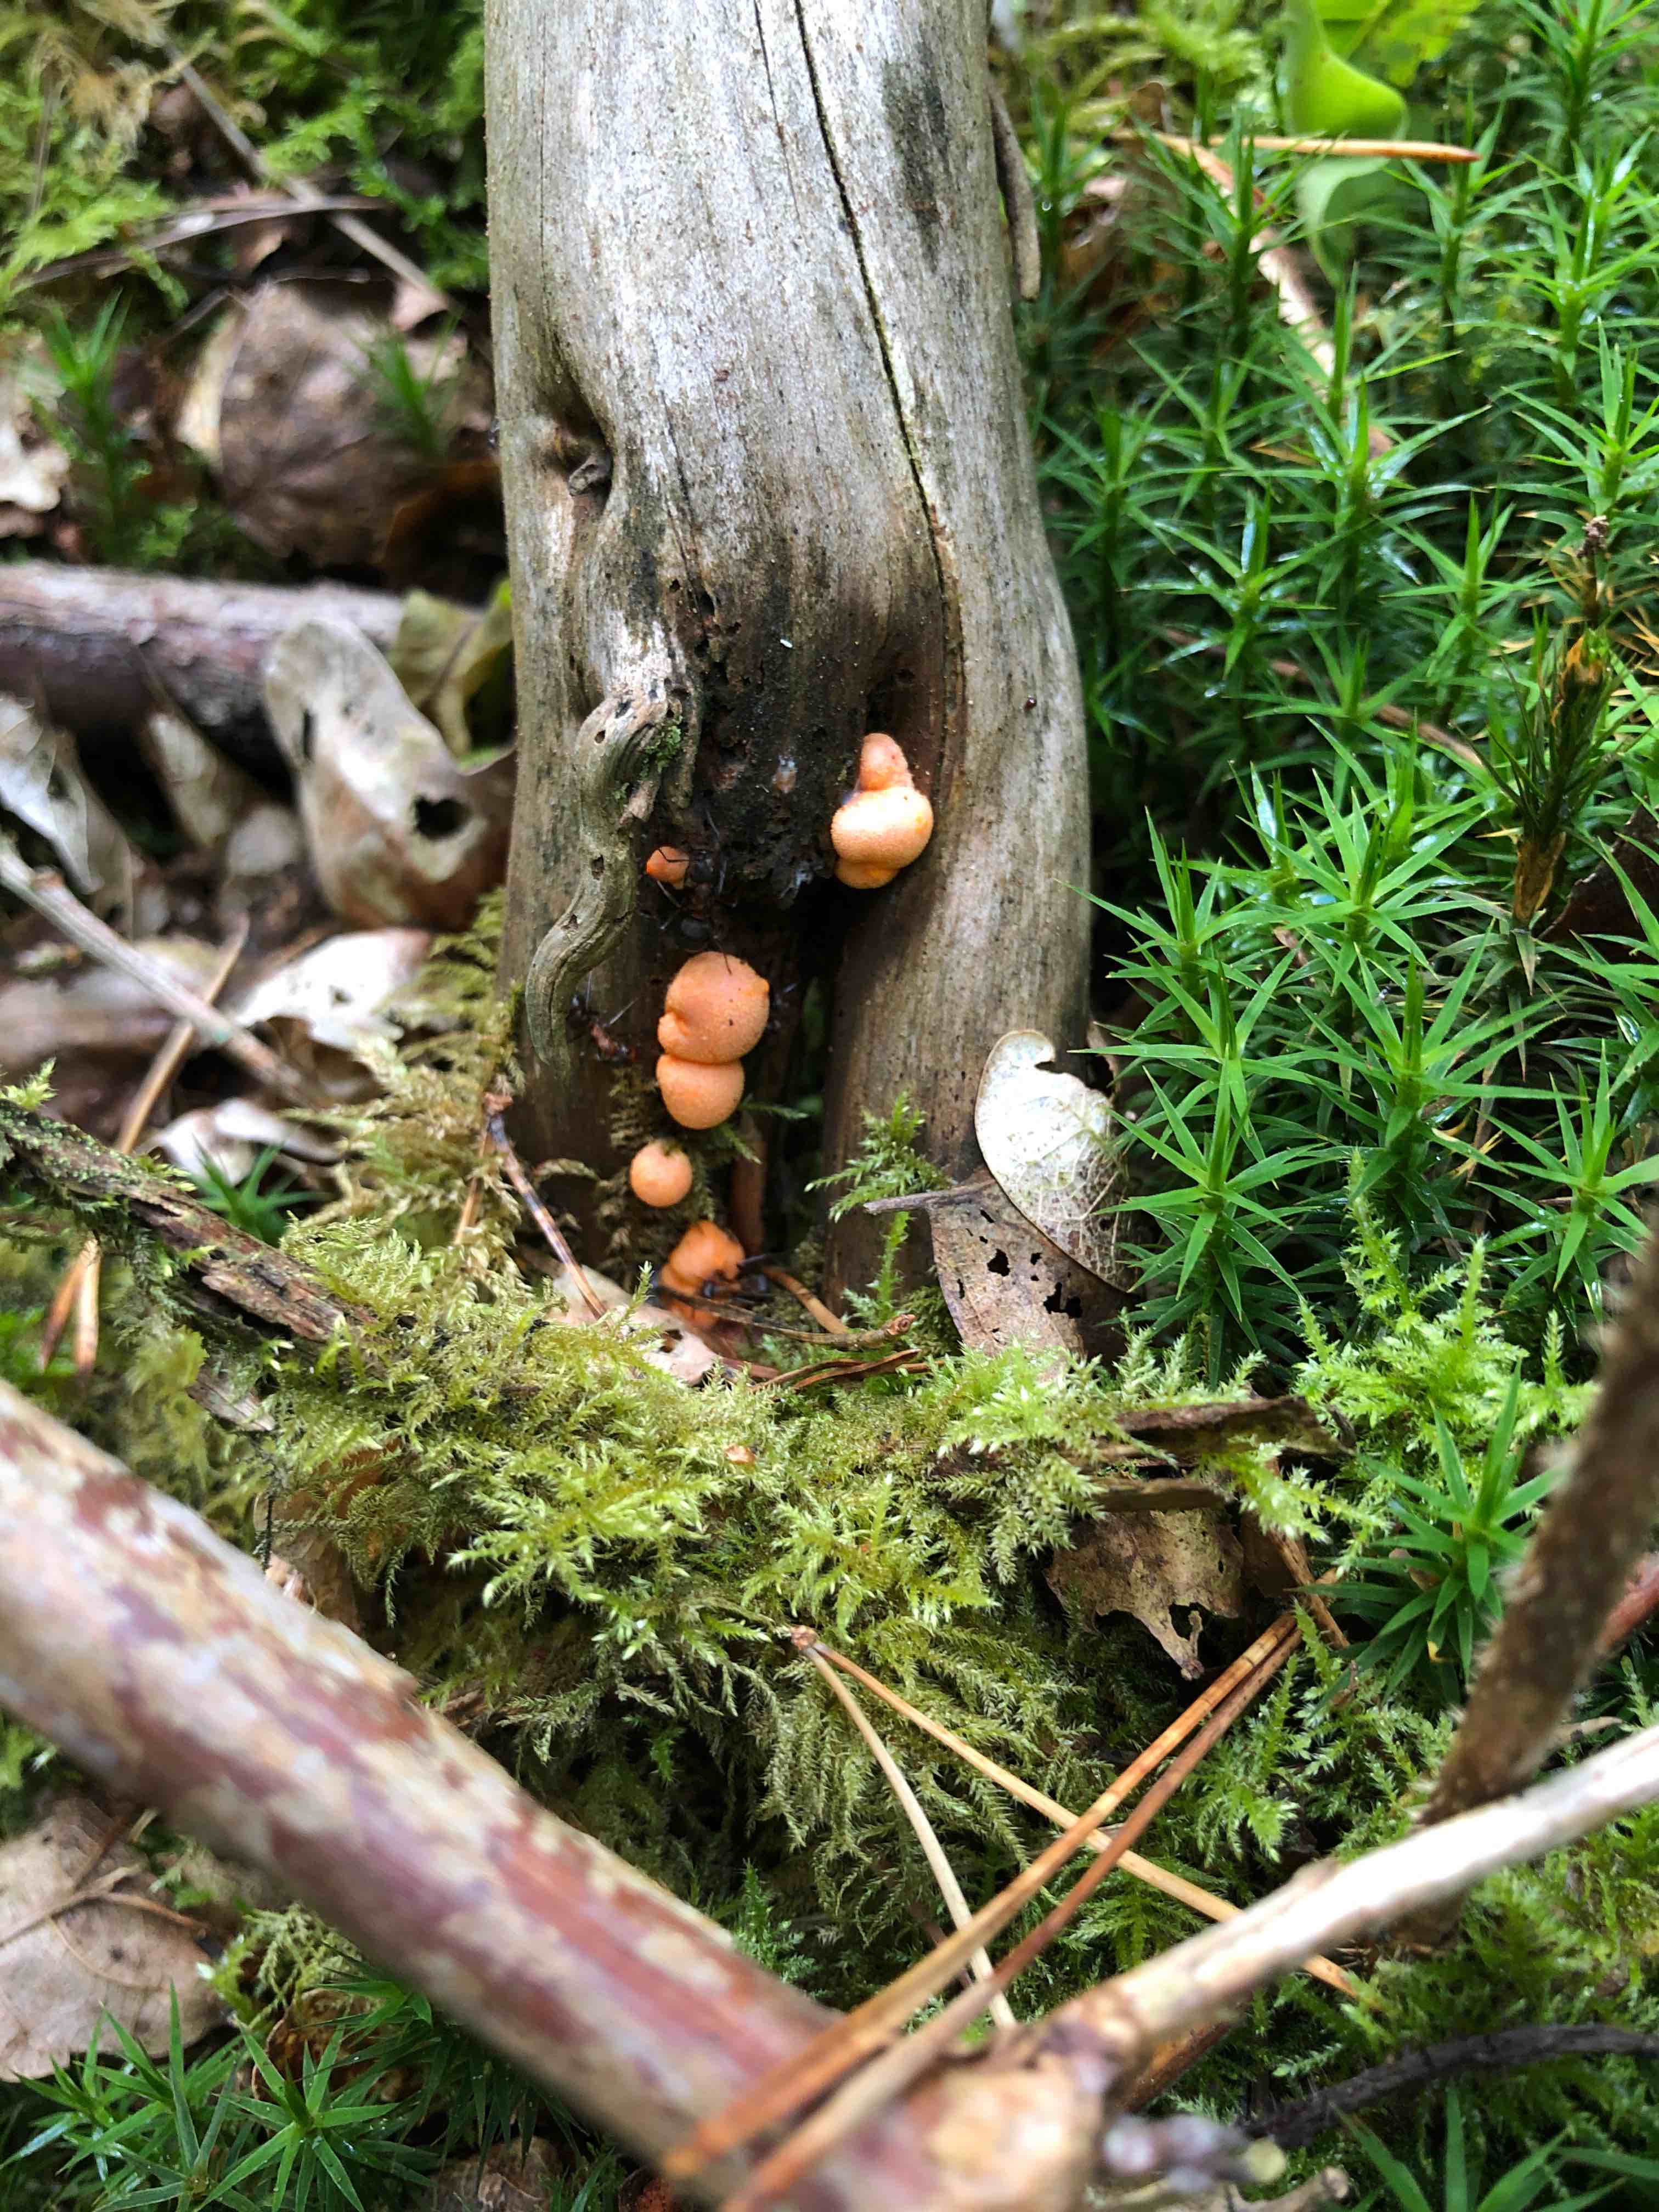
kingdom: Protozoa
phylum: Mycetozoa
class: Myxomycetes
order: Cribrariales
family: Tubiferaceae
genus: Lycogala
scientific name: Lycogala
